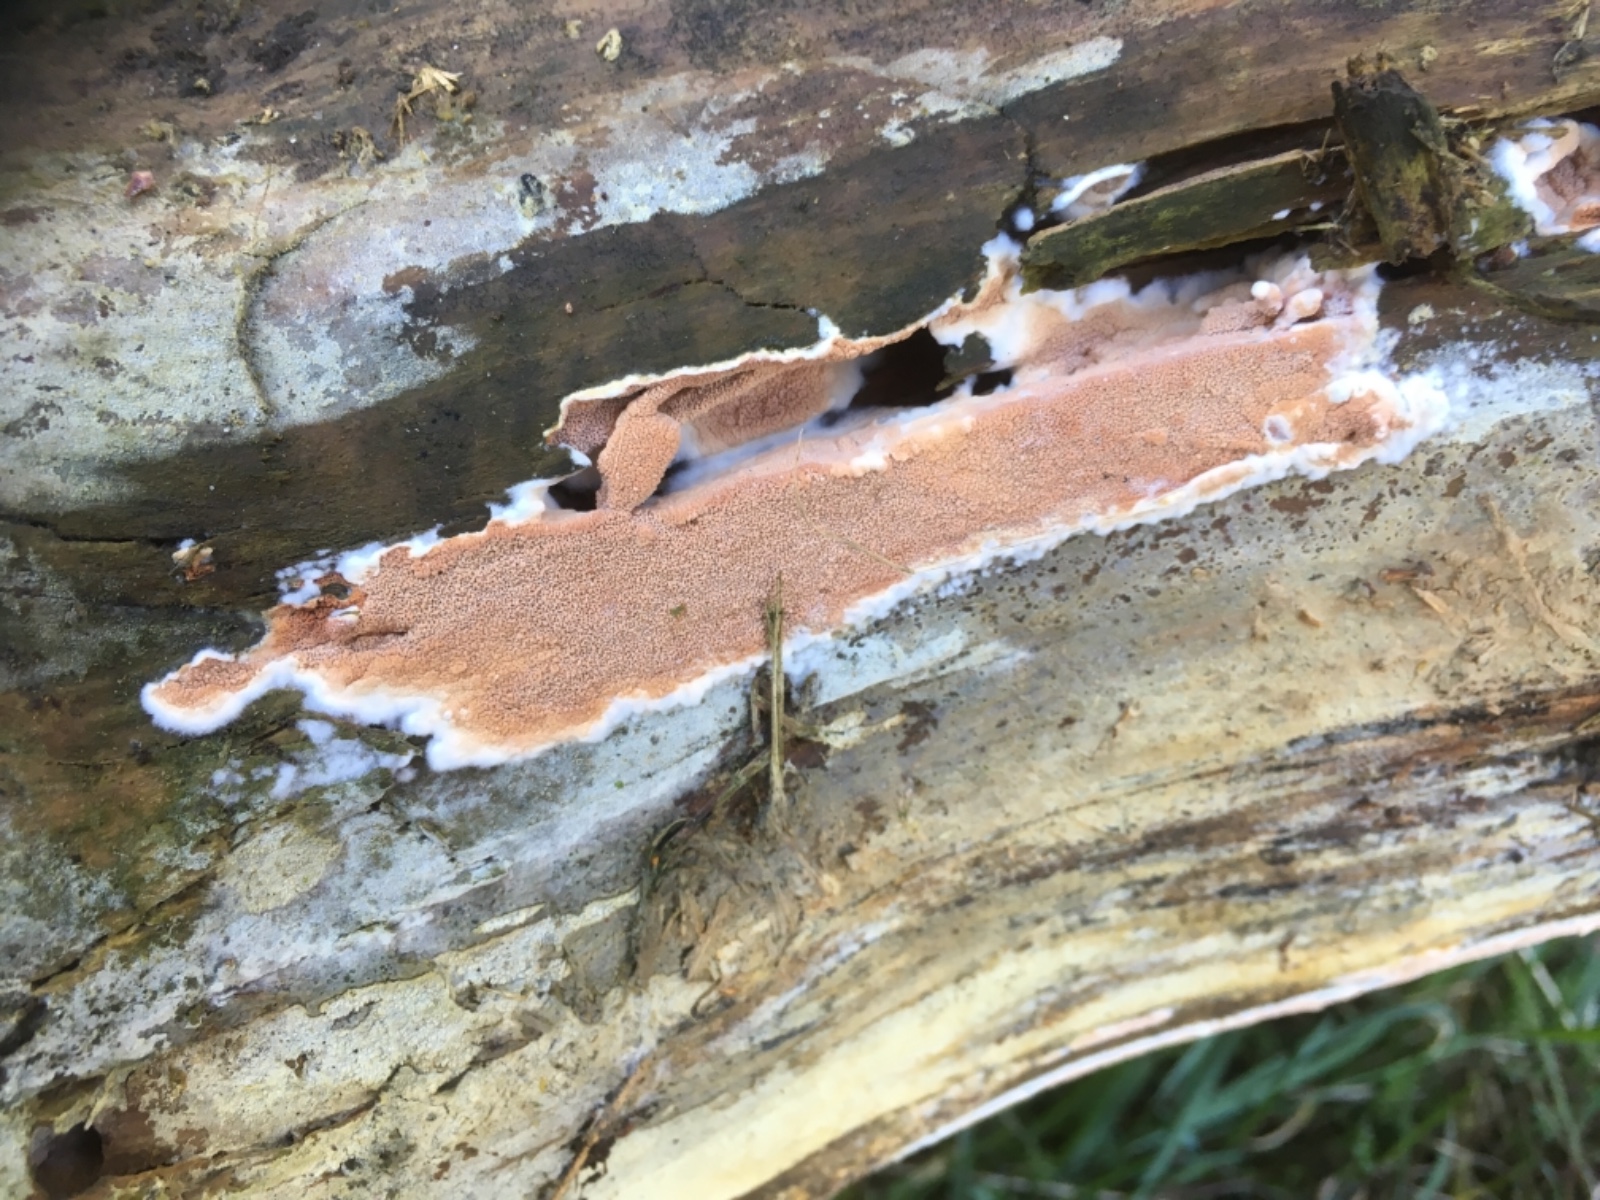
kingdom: Fungi
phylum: Basidiomycota
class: Agaricomycetes
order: Polyporales
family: Irpicaceae
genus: Meruliopsis
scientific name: Meruliopsis taxicola
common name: purpurbrun foldporesvamp
